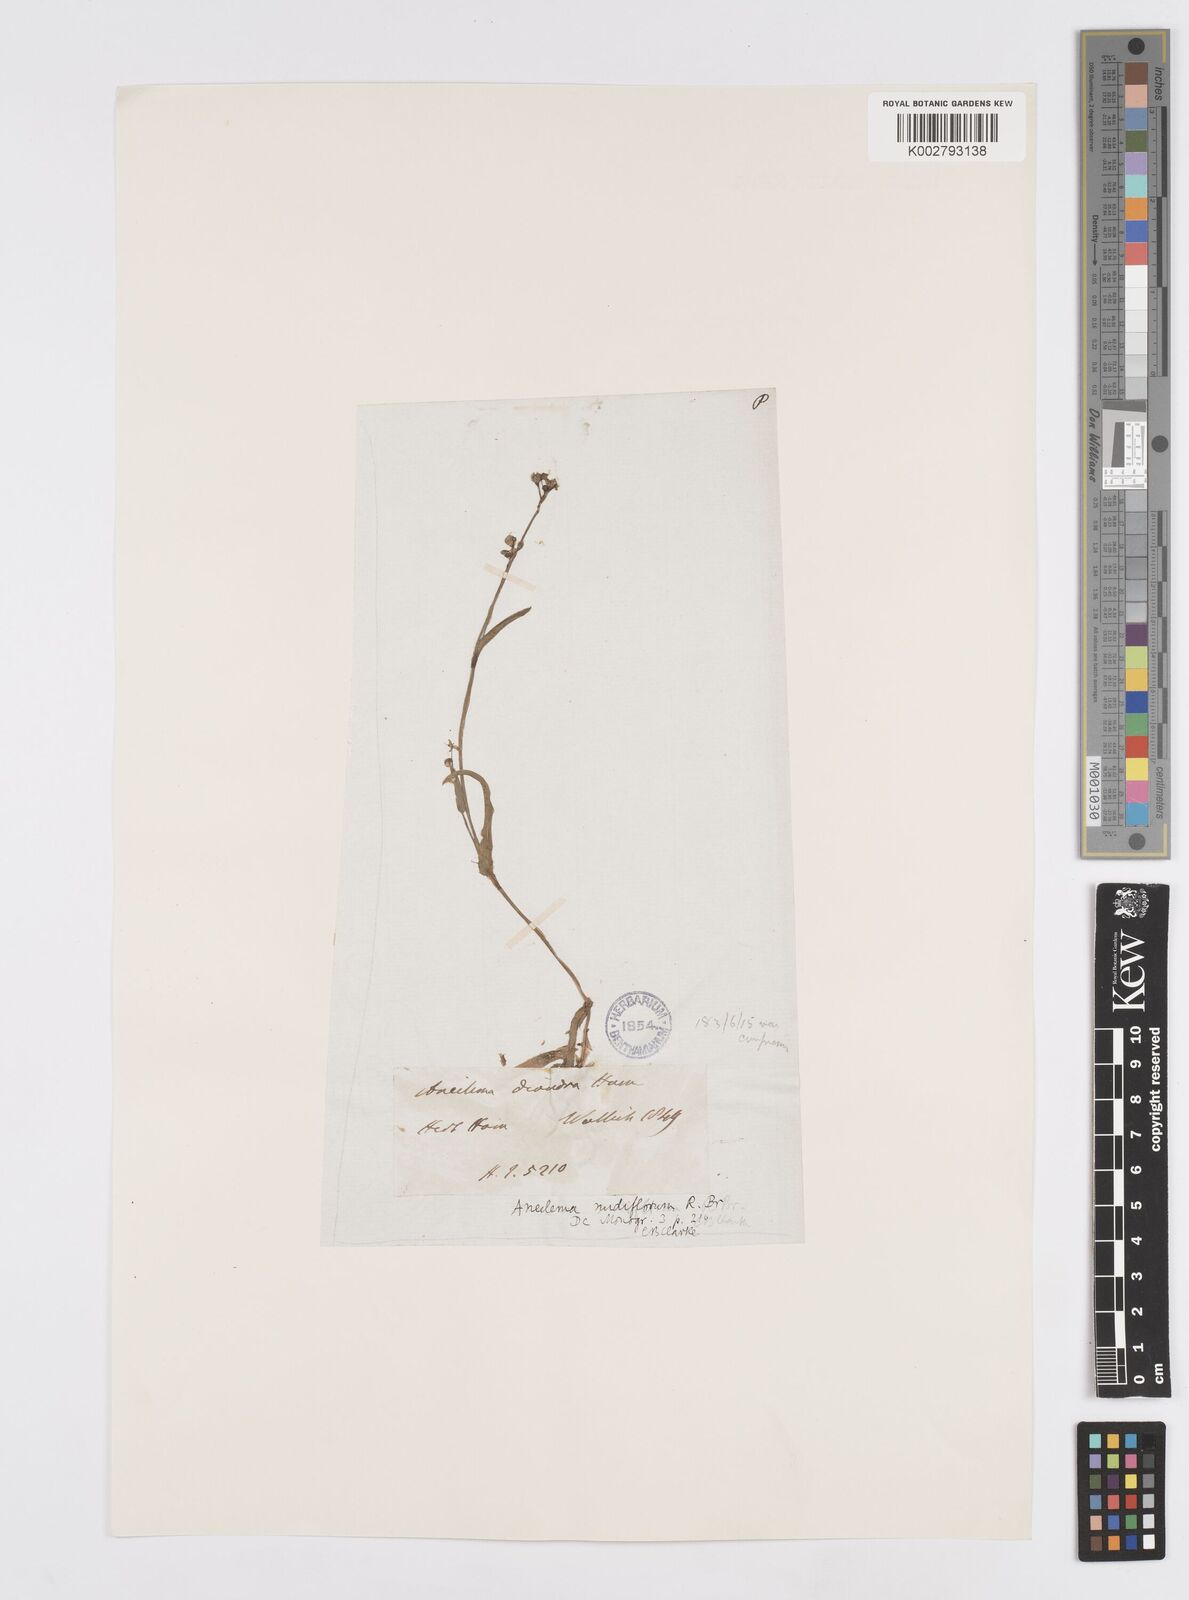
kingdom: Plantae
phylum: Tracheophyta
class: Liliopsida
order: Commelinales
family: Commelinaceae
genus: Murdannia
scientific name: Murdannia nudiflora
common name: Nakedstem dewflower
